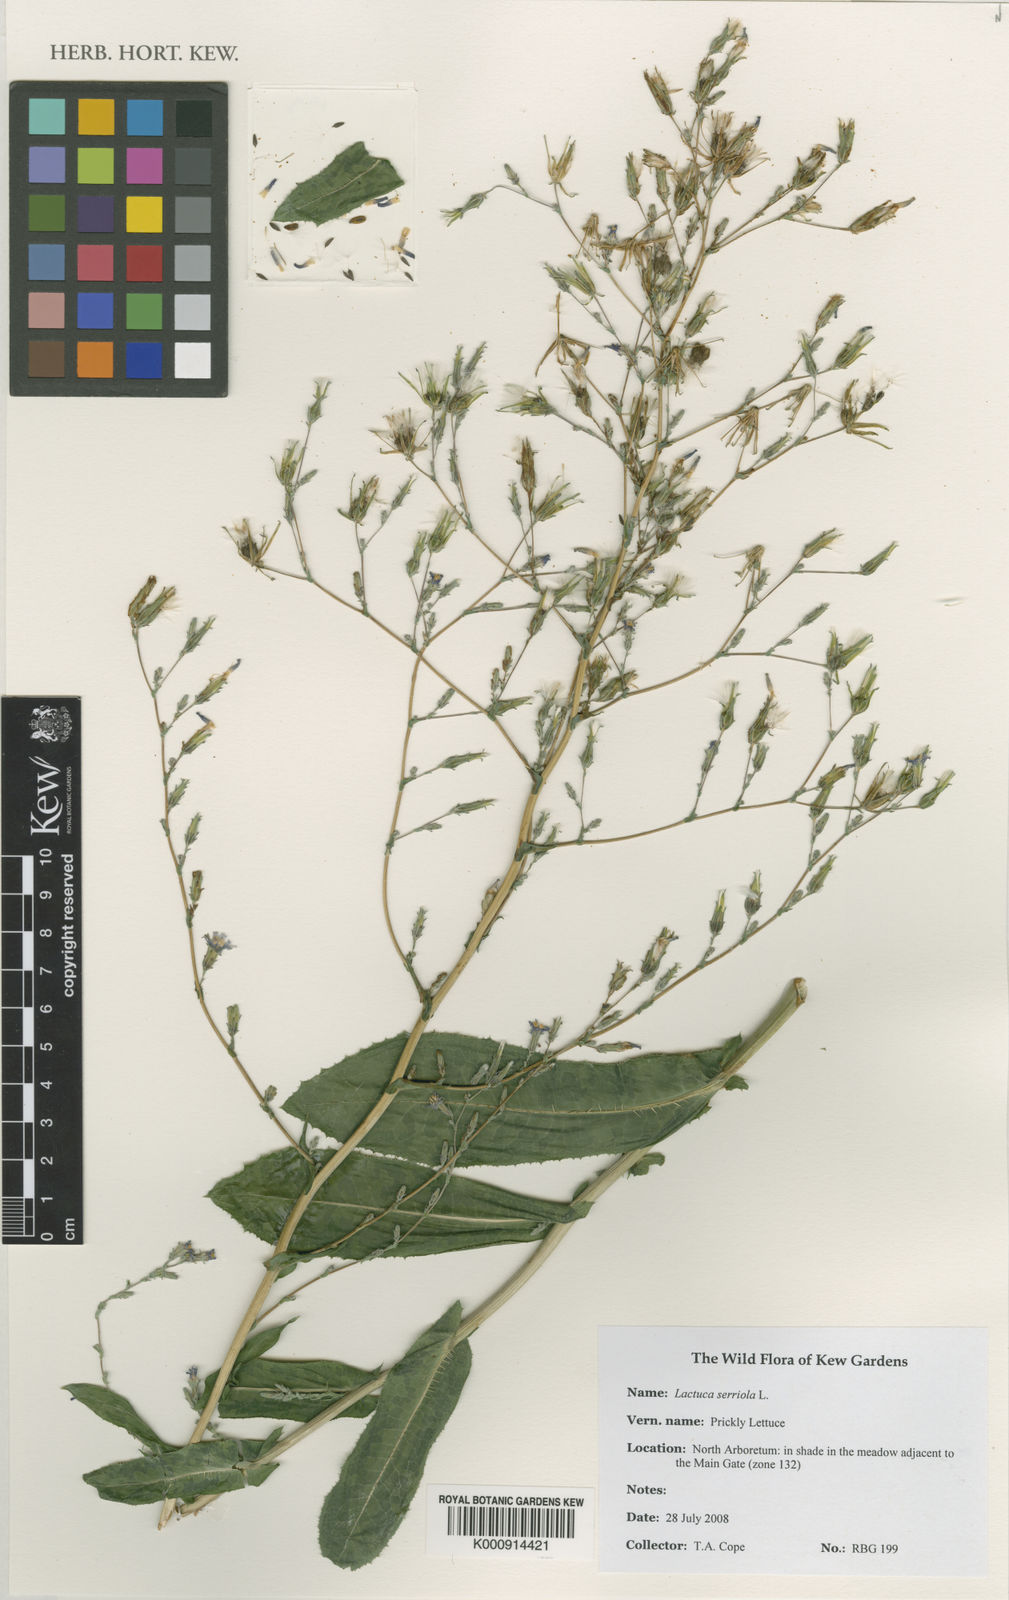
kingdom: Plantae
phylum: Tracheophyta
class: Magnoliopsida
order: Asterales
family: Asteraceae
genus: Lactuca
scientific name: Lactuca serriola
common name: Prickly lettuce
